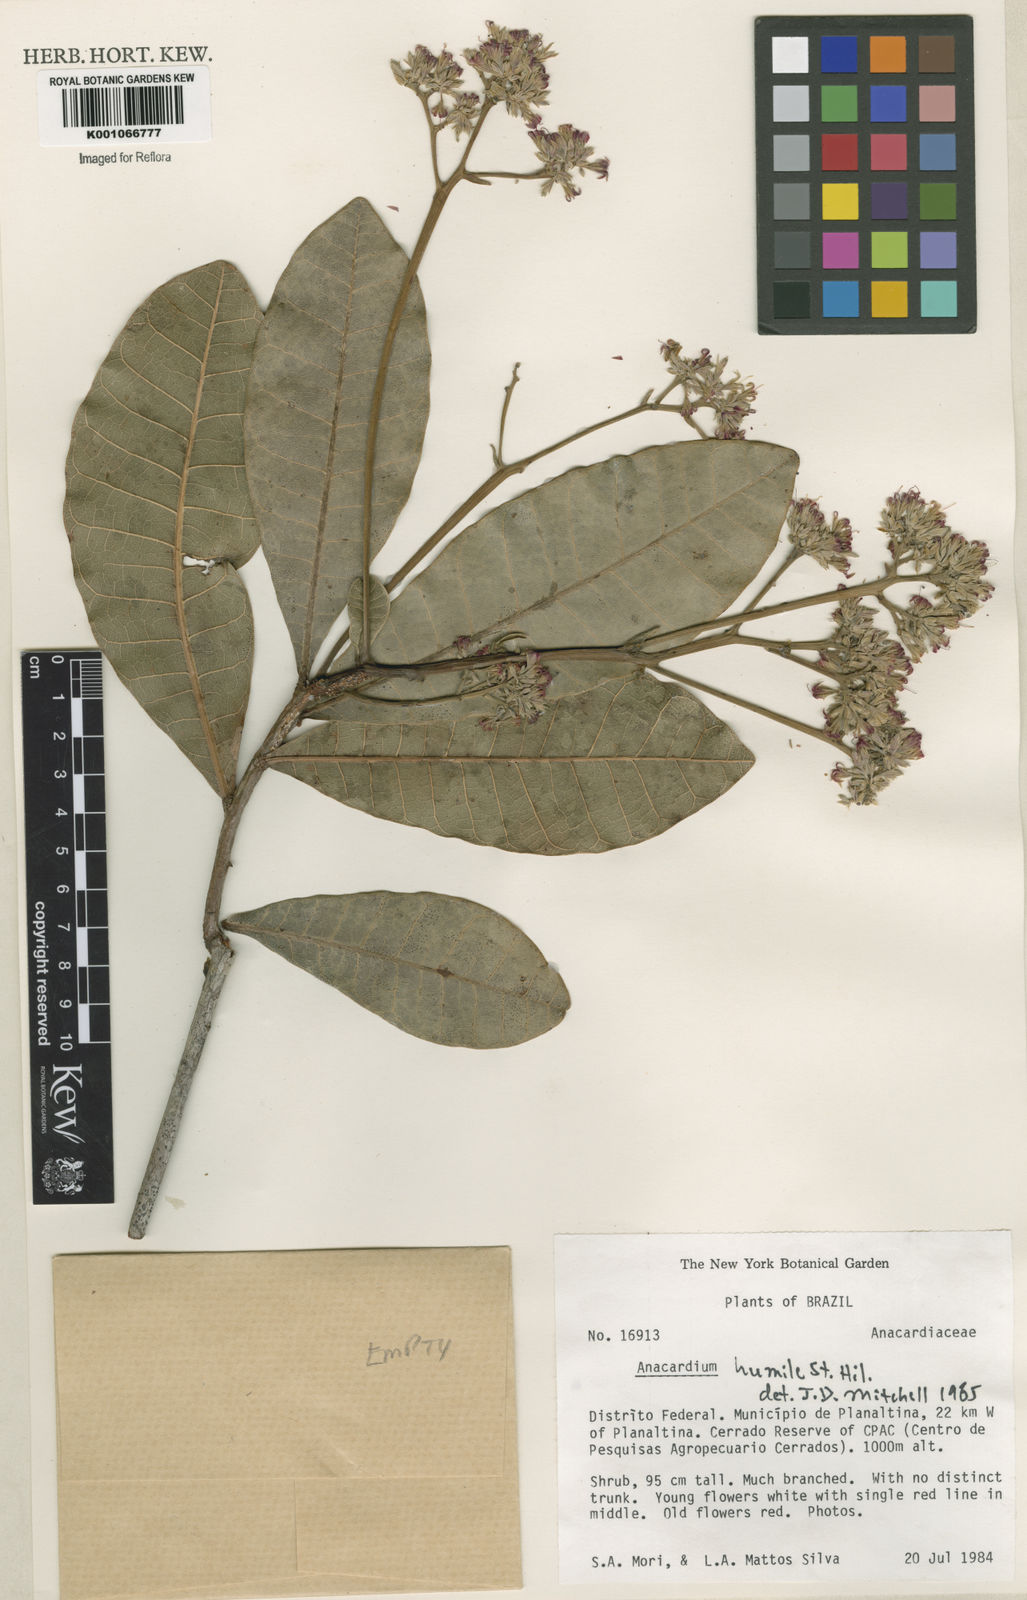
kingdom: Plantae
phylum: Tracheophyta
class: Magnoliopsida
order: Sapindales
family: Anacardiaceae
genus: Anacardium
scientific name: Anacardium humile
